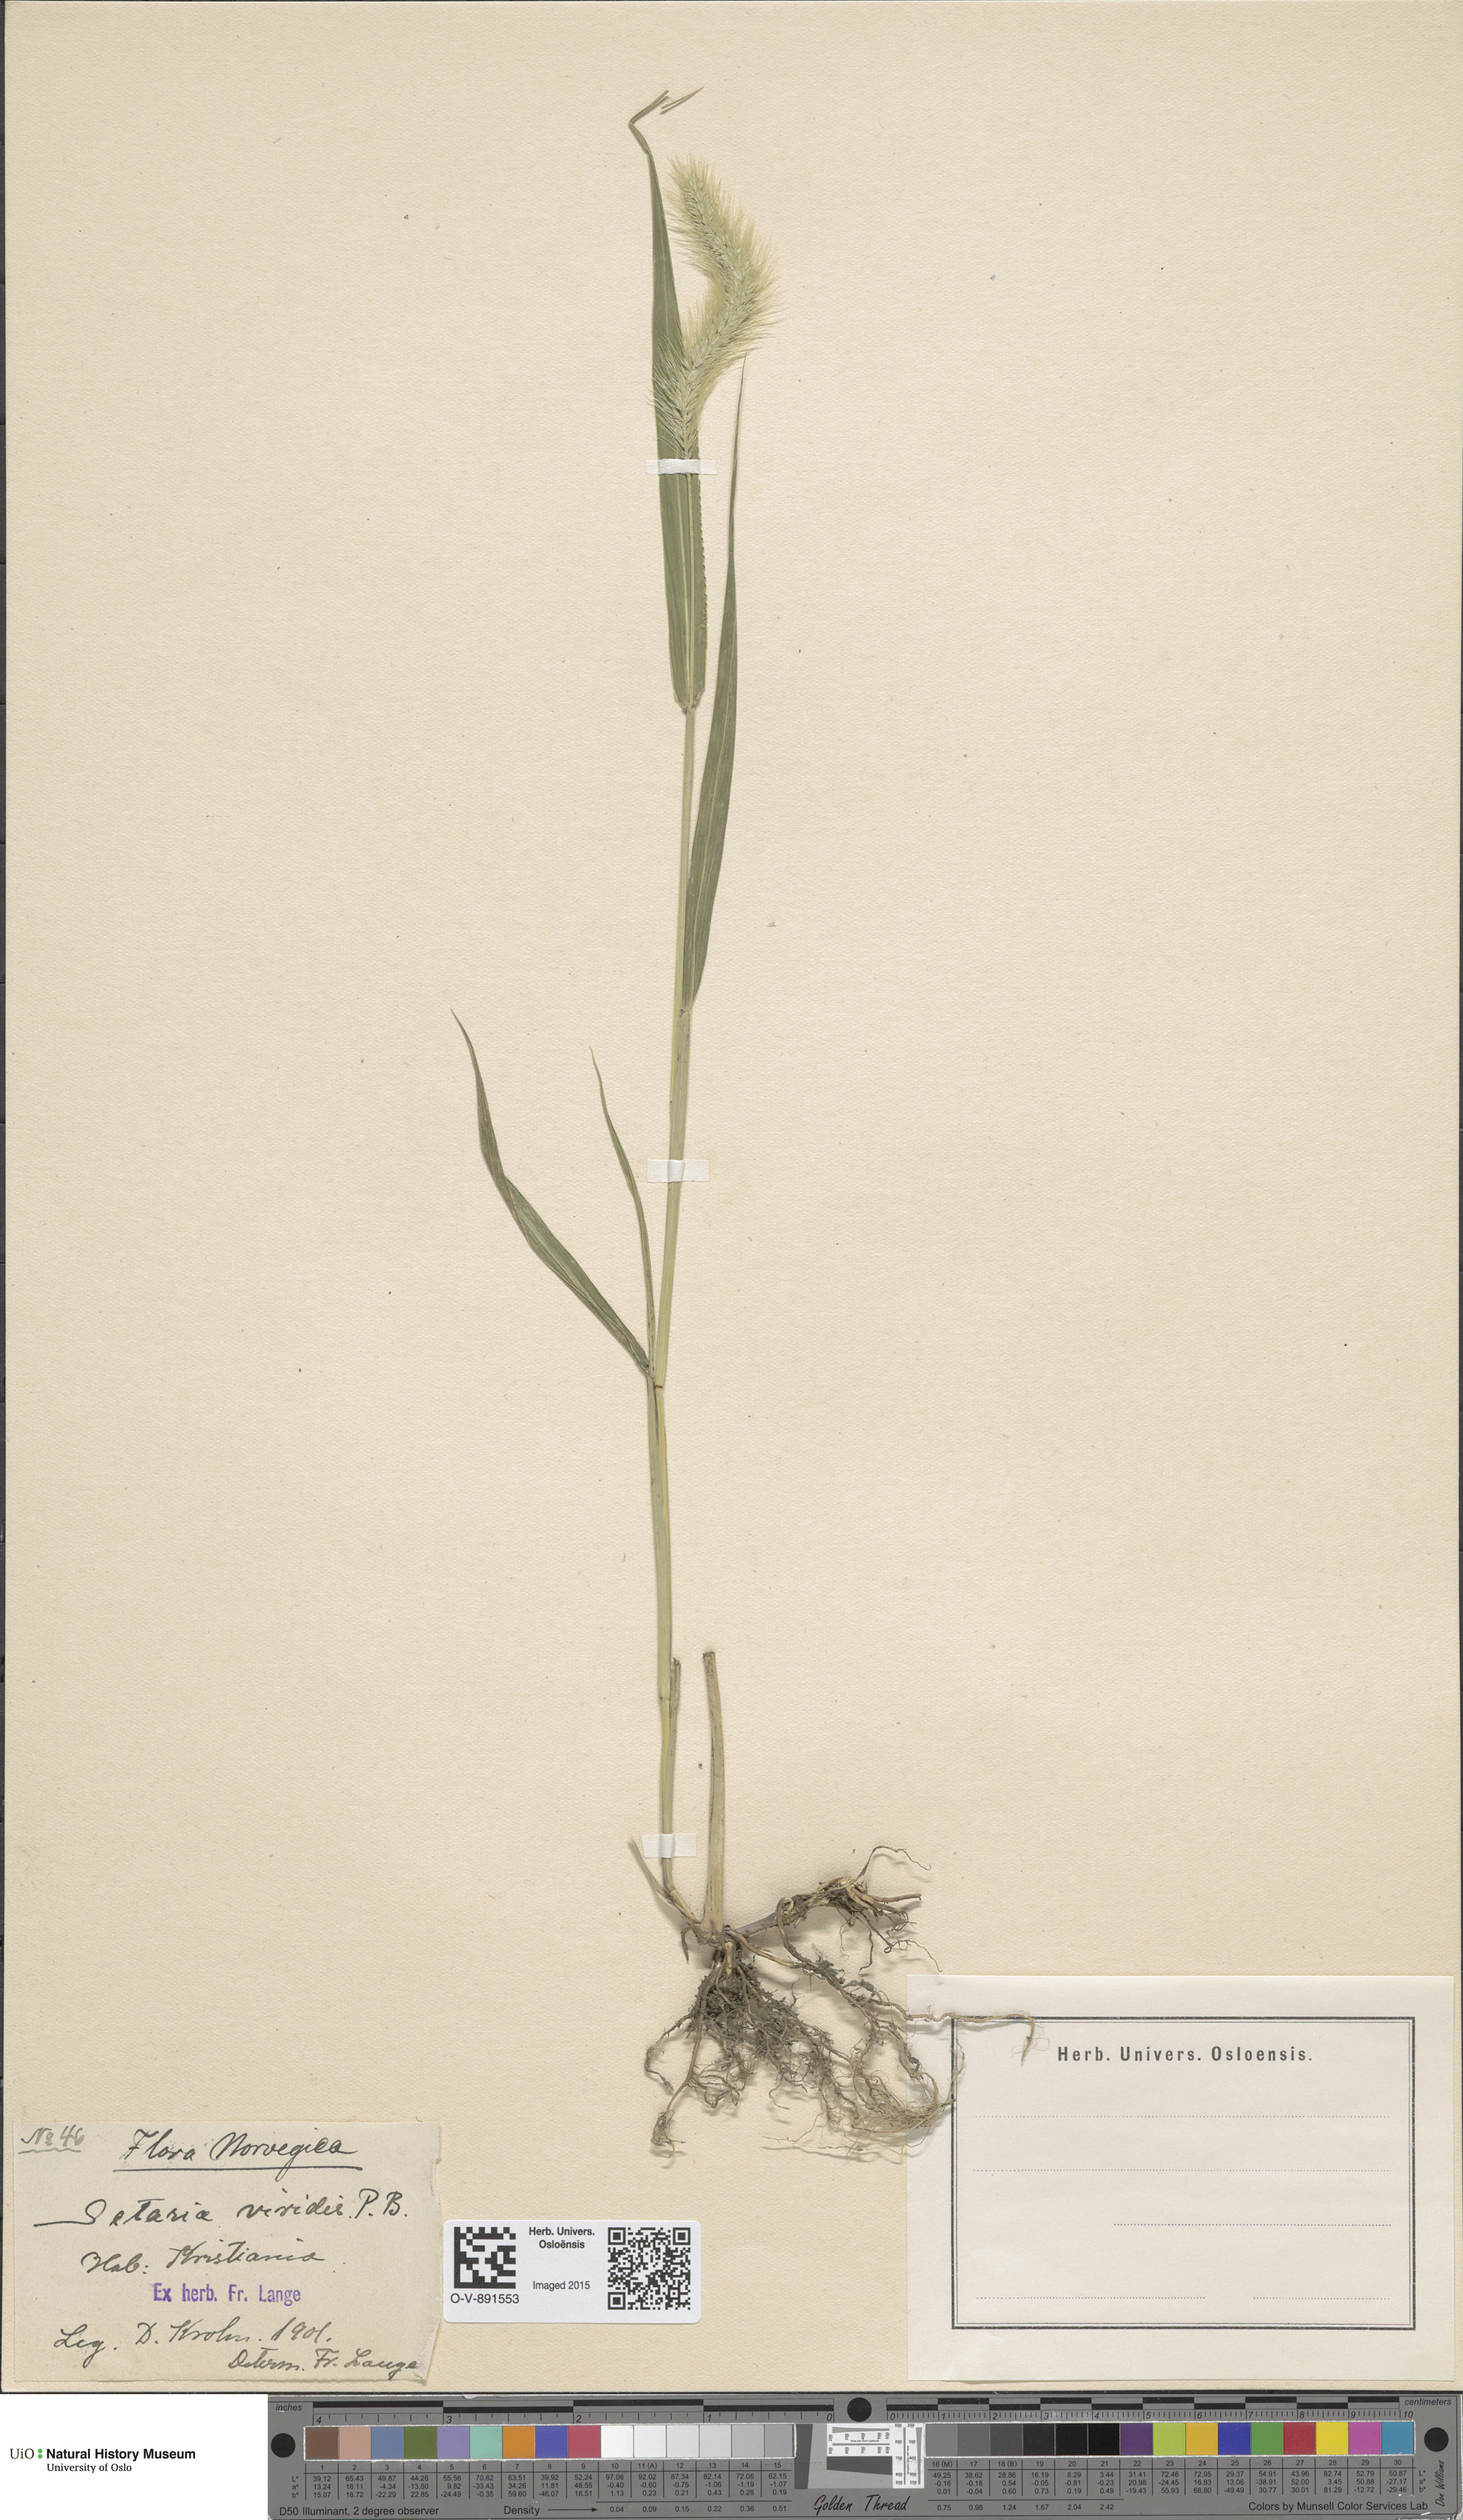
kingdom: Plantae
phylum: Tracheophyta
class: Liliopsida
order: Poales
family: Poaceae
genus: Setaria
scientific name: Setaria viridis
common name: Green bristlegrass
